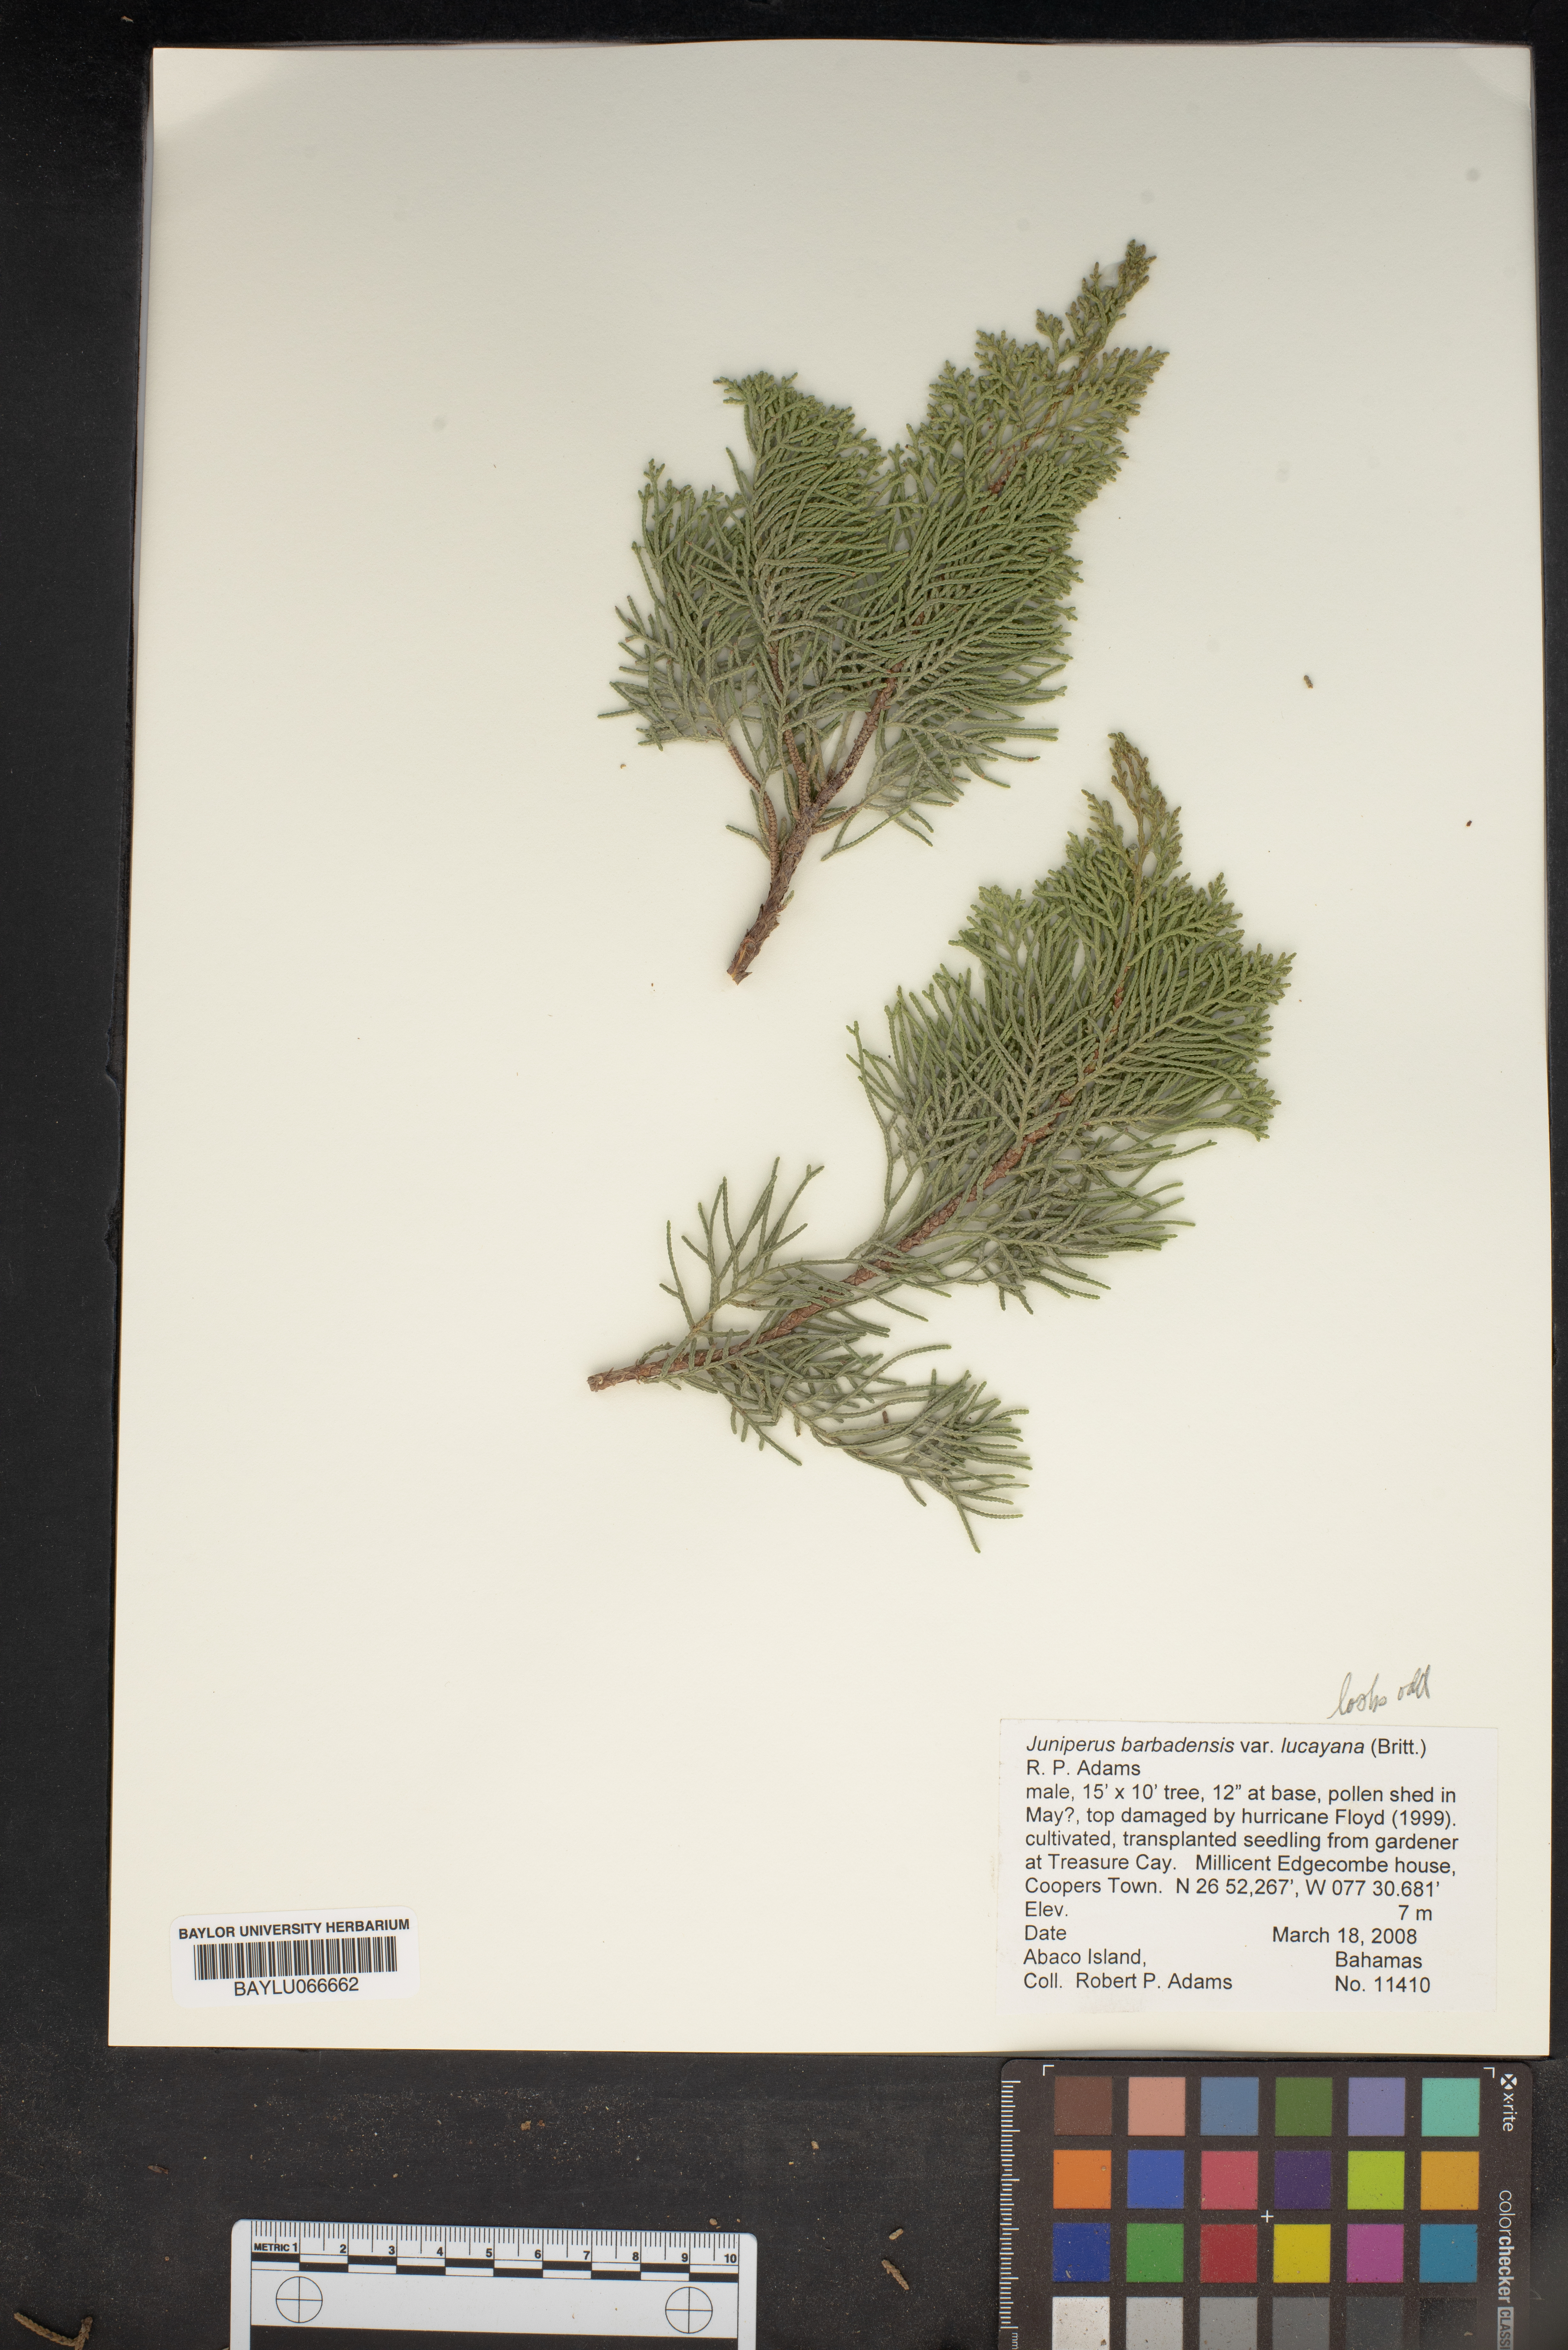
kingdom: Plantae
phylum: Tracheophyta
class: Pinopsida
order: Pinales
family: Cupressaceae
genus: Juniperus
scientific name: Juniperus barbadensis
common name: West indies juniper
